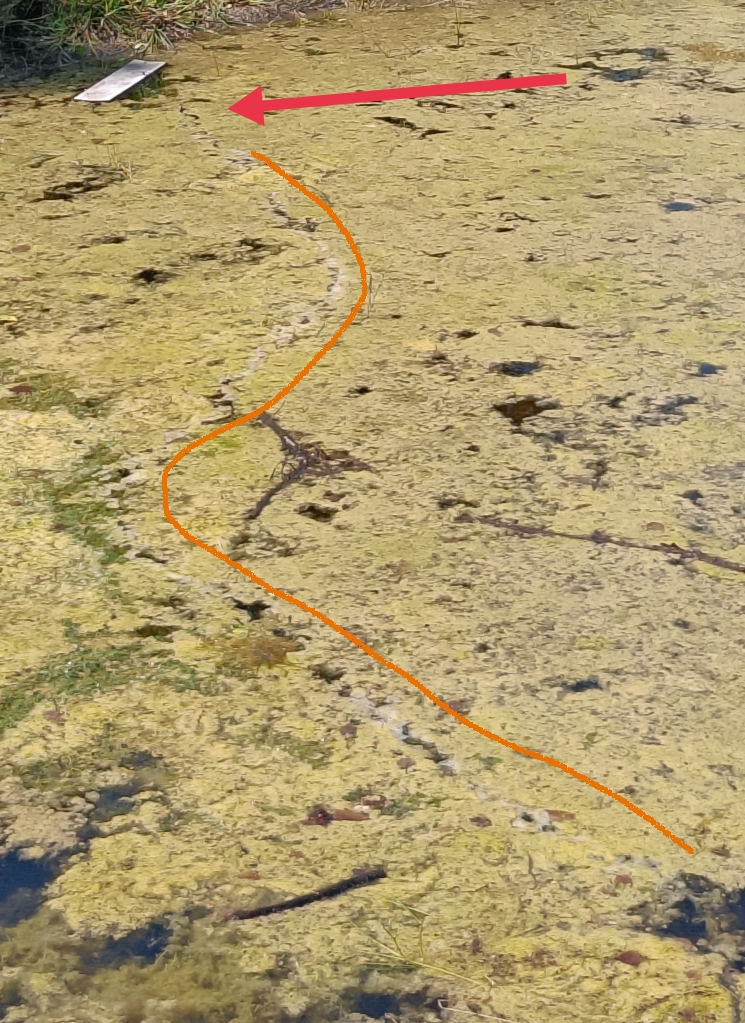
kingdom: Animalia
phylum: Chordata
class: Squamata
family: Colubridae
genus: Natrix
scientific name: Natrix natrix
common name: Snog
